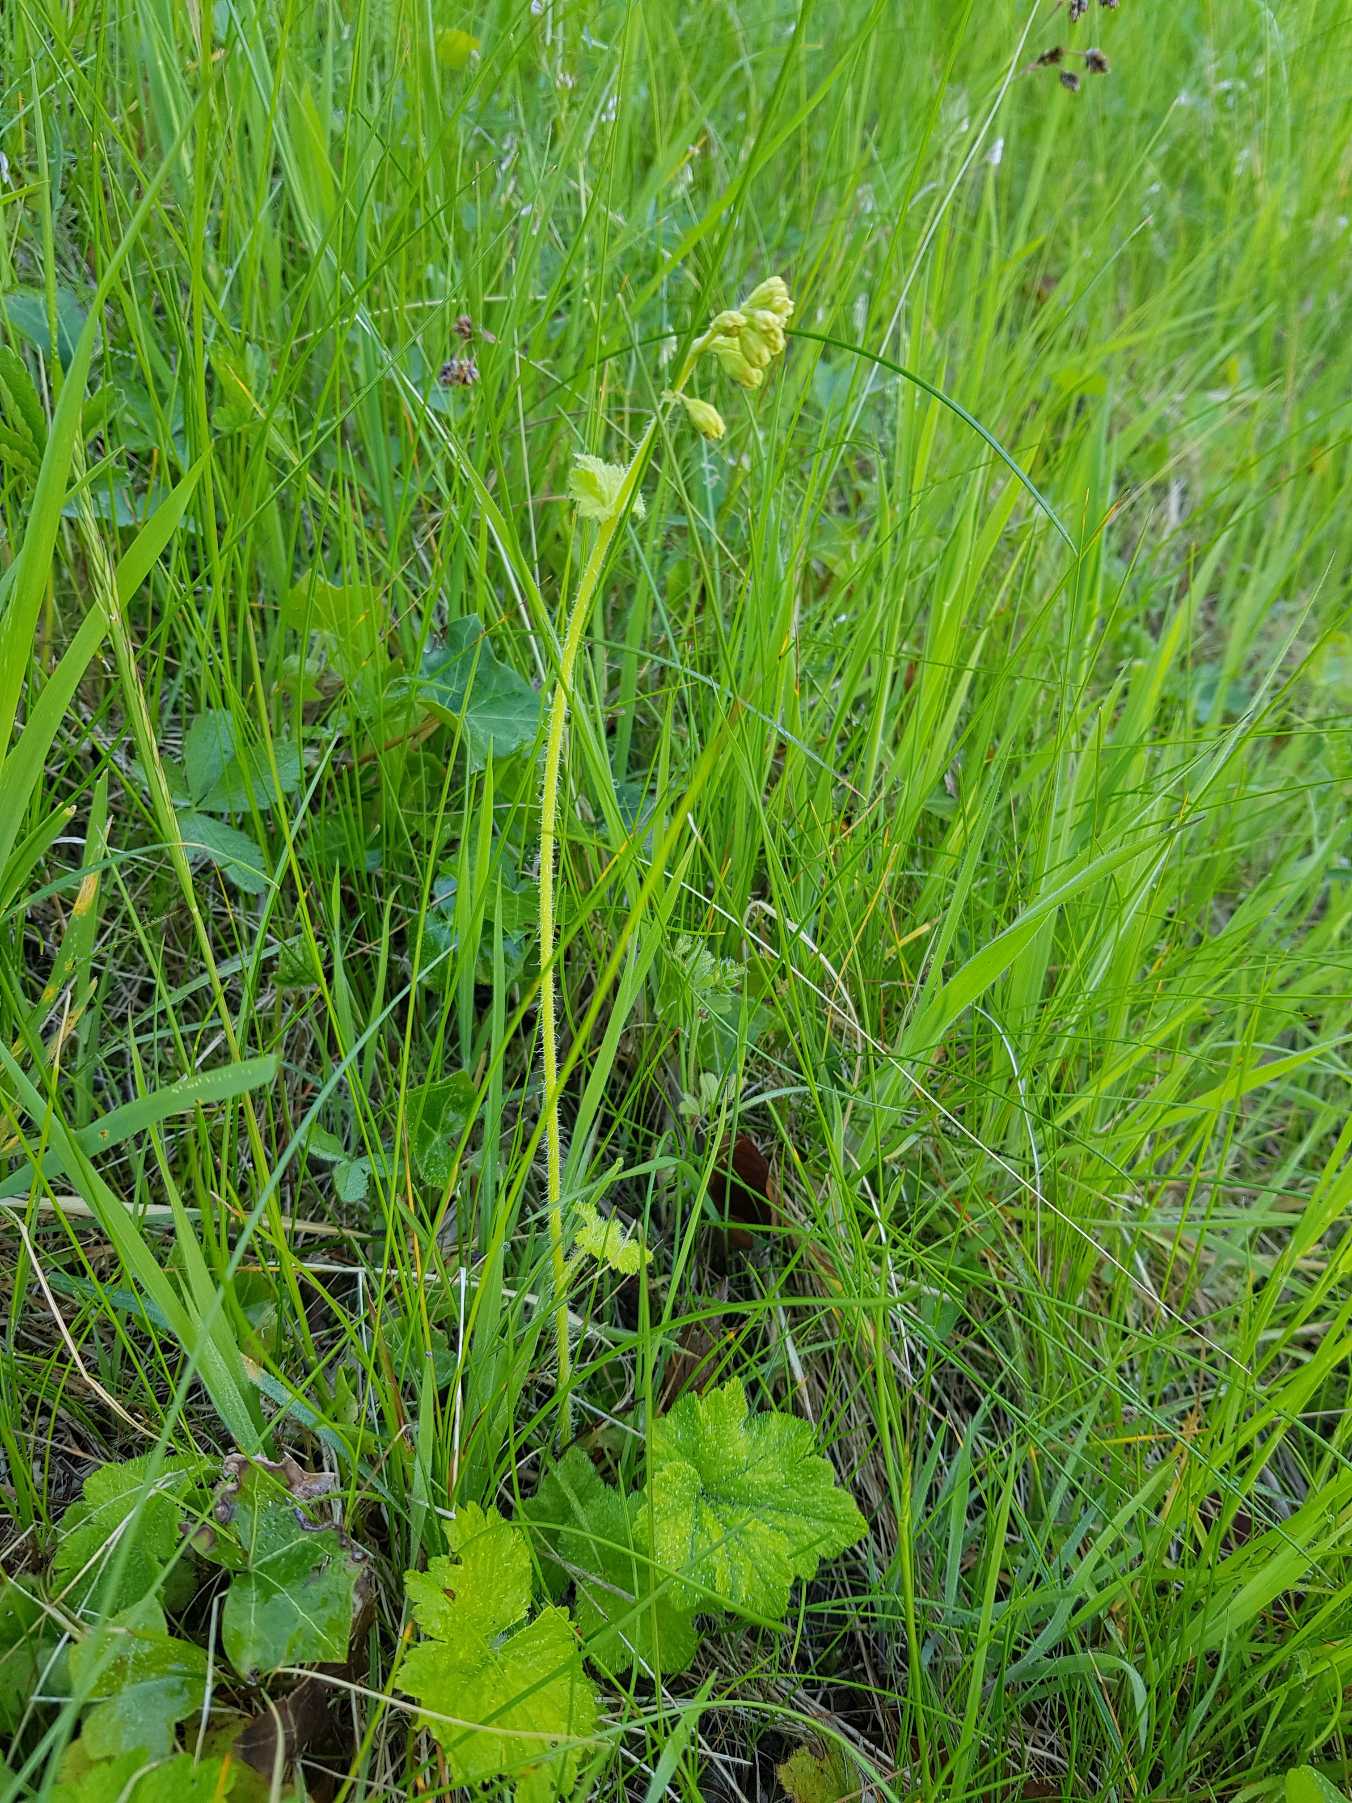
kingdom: Plantae
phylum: Tracheophyta
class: Magnoliopsida
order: Saxifragales
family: Saxifragaceae
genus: Tellima
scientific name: Tellima grandiflora
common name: Biskophat
